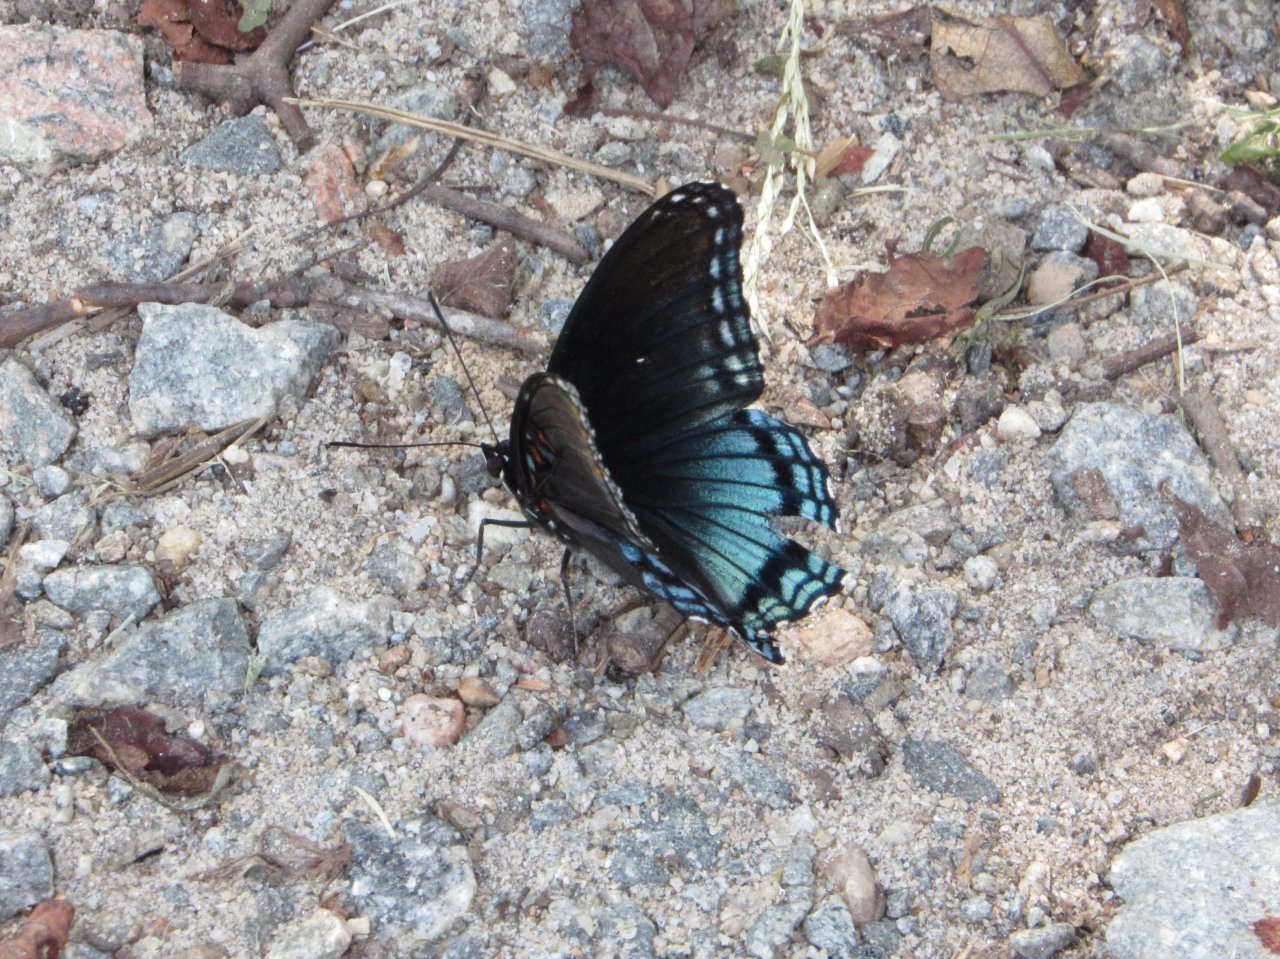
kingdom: Animalia
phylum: Arthropoda
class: Insecta
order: Lepidoptera
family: Nymphalidae
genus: Limenitis
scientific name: Limenitis astyanax
